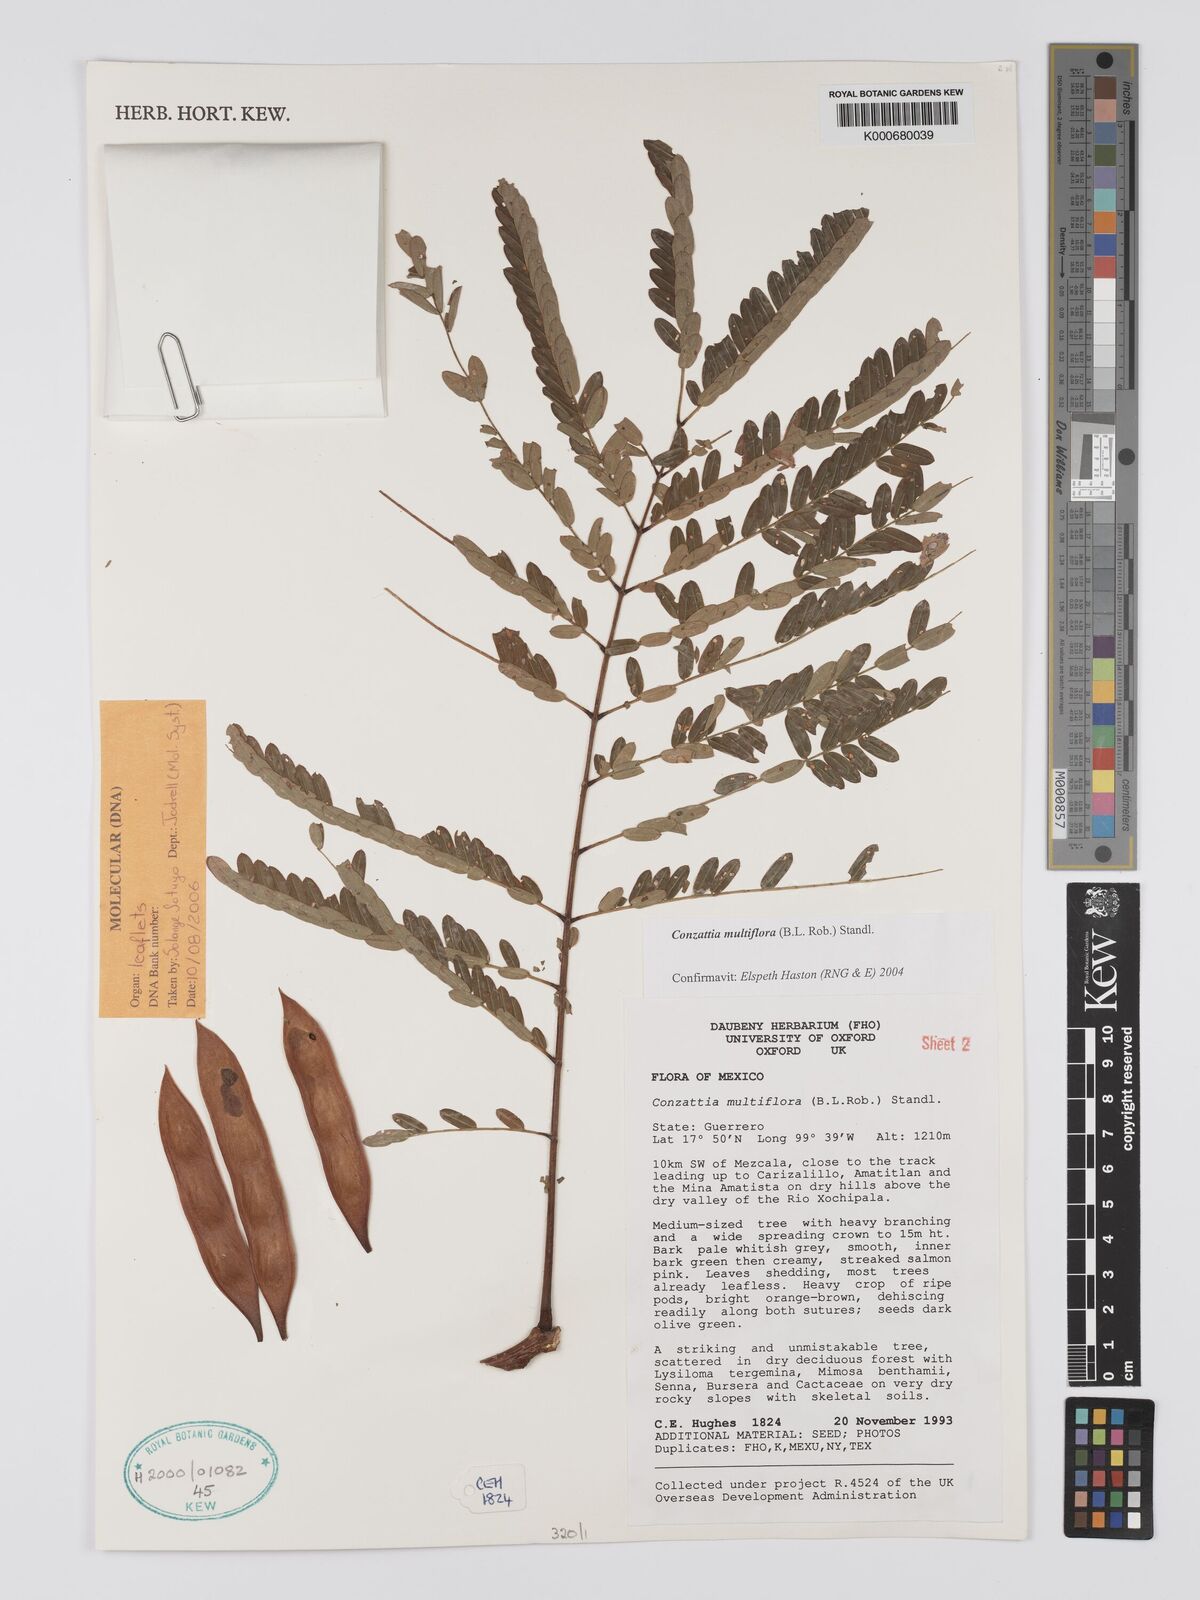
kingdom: Plantae
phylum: Tracheophyta
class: Magnoliopsida
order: Fabales
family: Fabaceae
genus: Conzattia
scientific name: Conzattia multiflora
